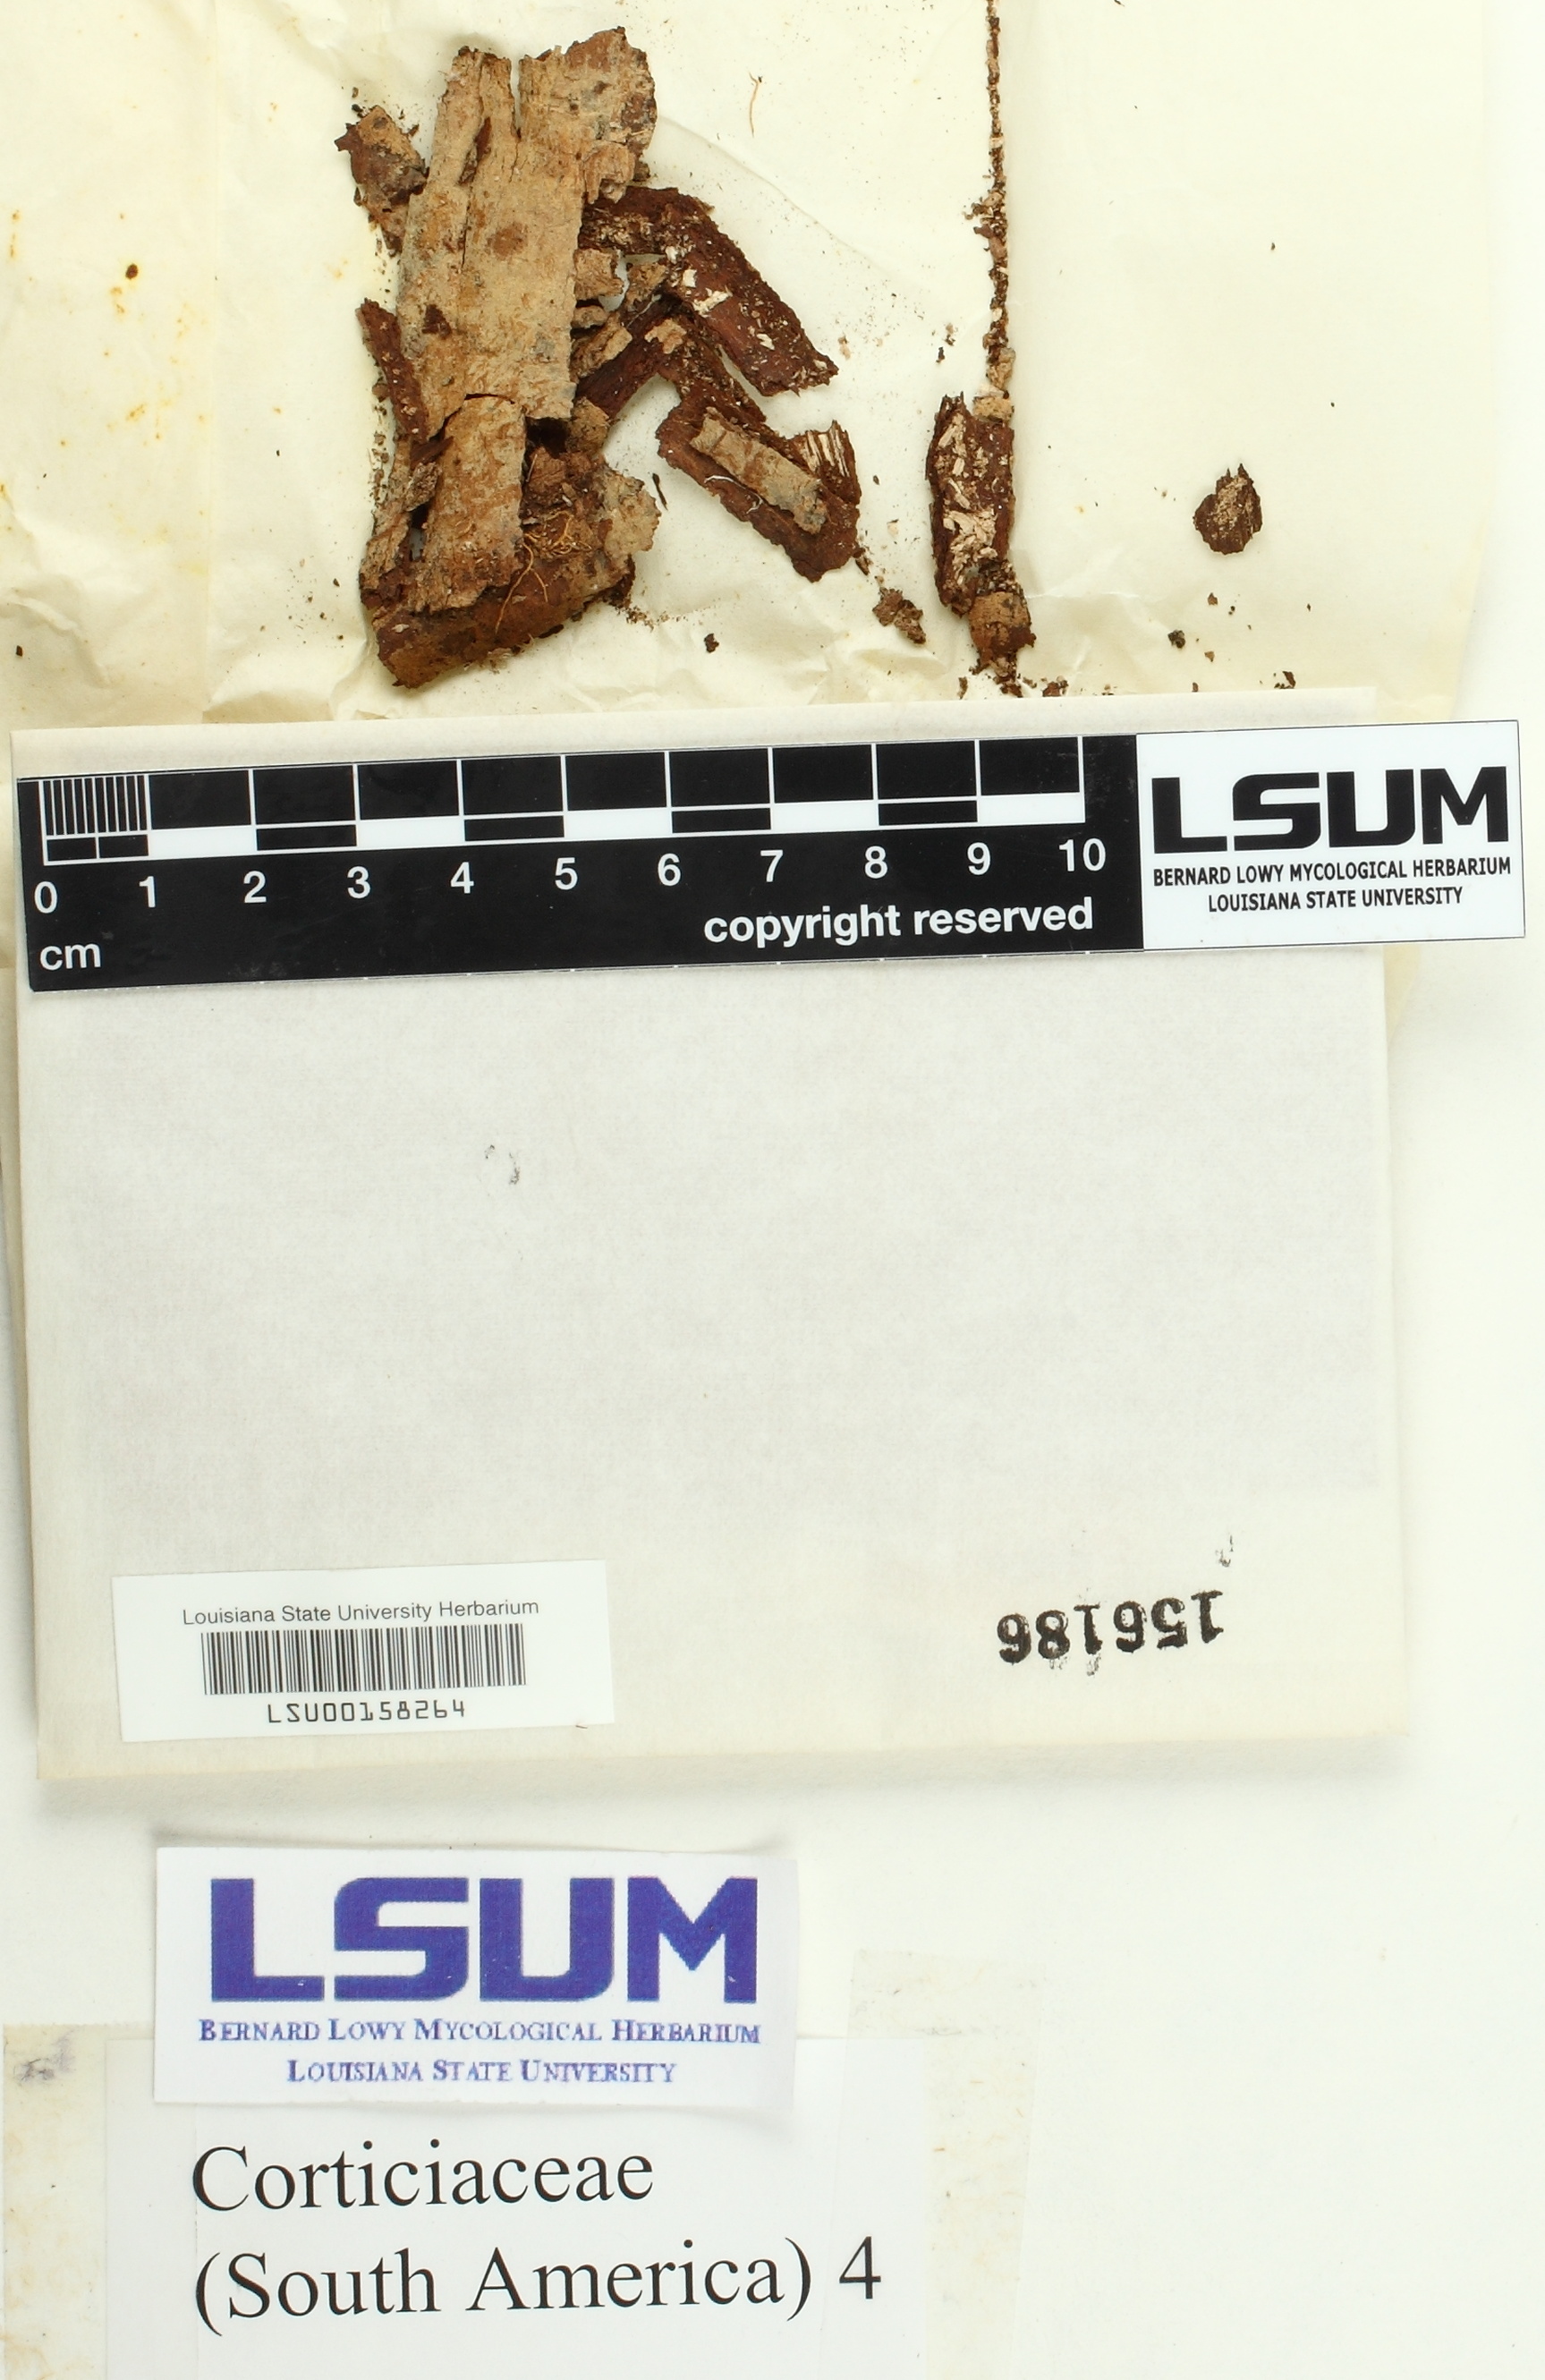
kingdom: Fungi
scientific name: Fungi
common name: Fungi
